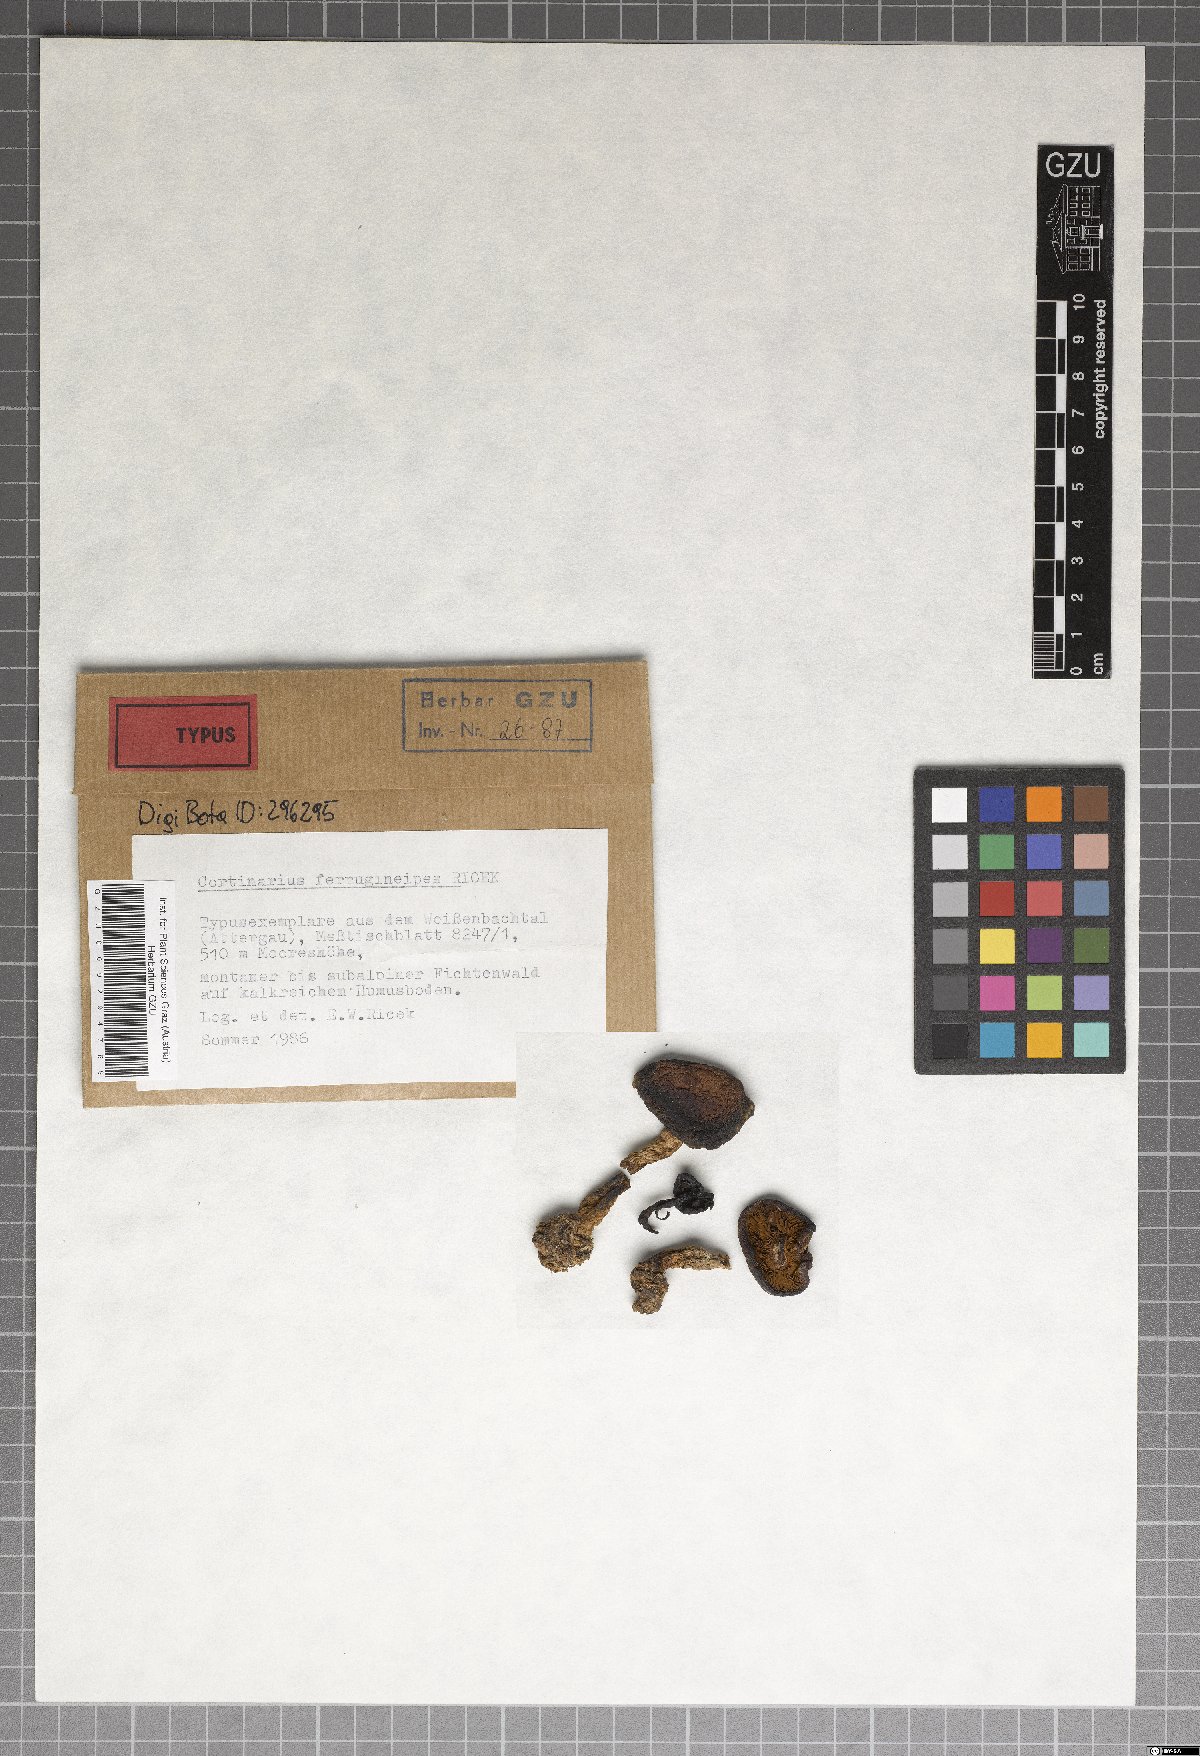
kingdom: Fungi
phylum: Basidiomycota
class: Agaricomycetes
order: Agaricales
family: Cortinariaceae
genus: Cortinarius
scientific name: Cortinarius ferrugineipes
